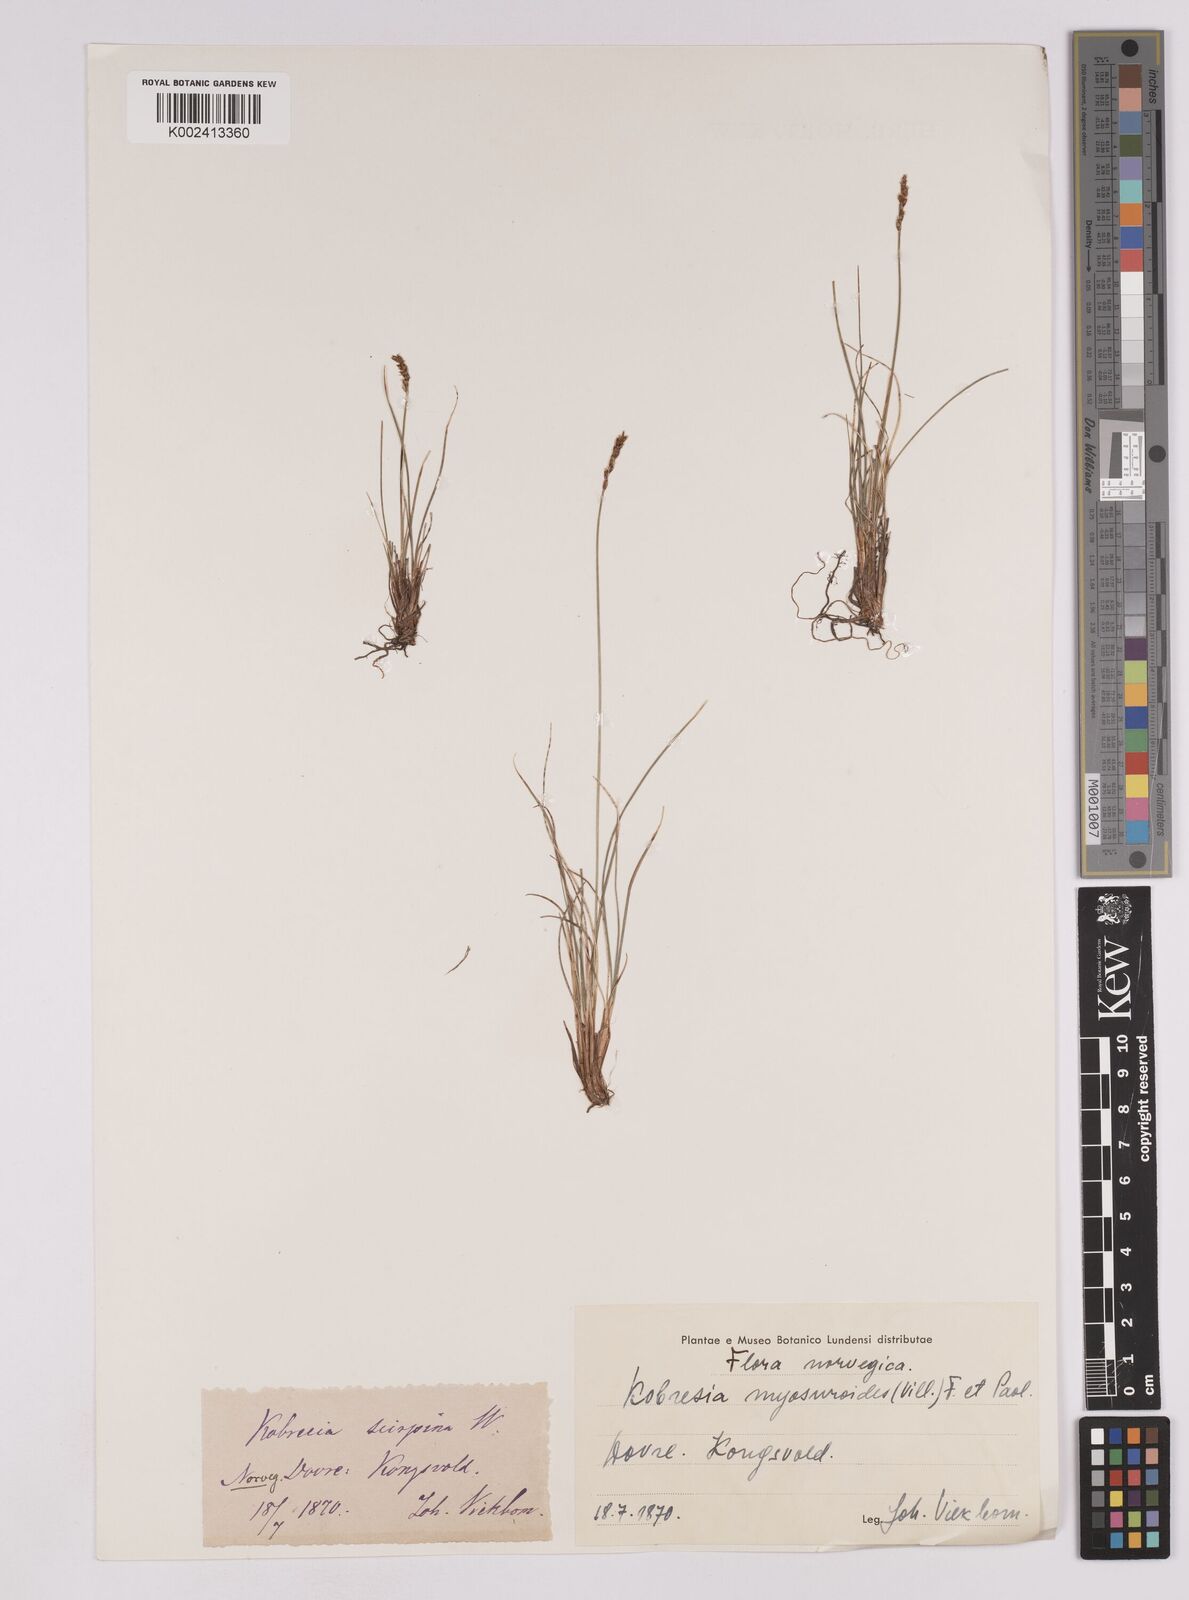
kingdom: Plantae
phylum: Tracheophyta
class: Liliopsida
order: Poales
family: Cyperaceae
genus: Carex
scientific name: Carex myosuroides
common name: Bellard's bog sedge
